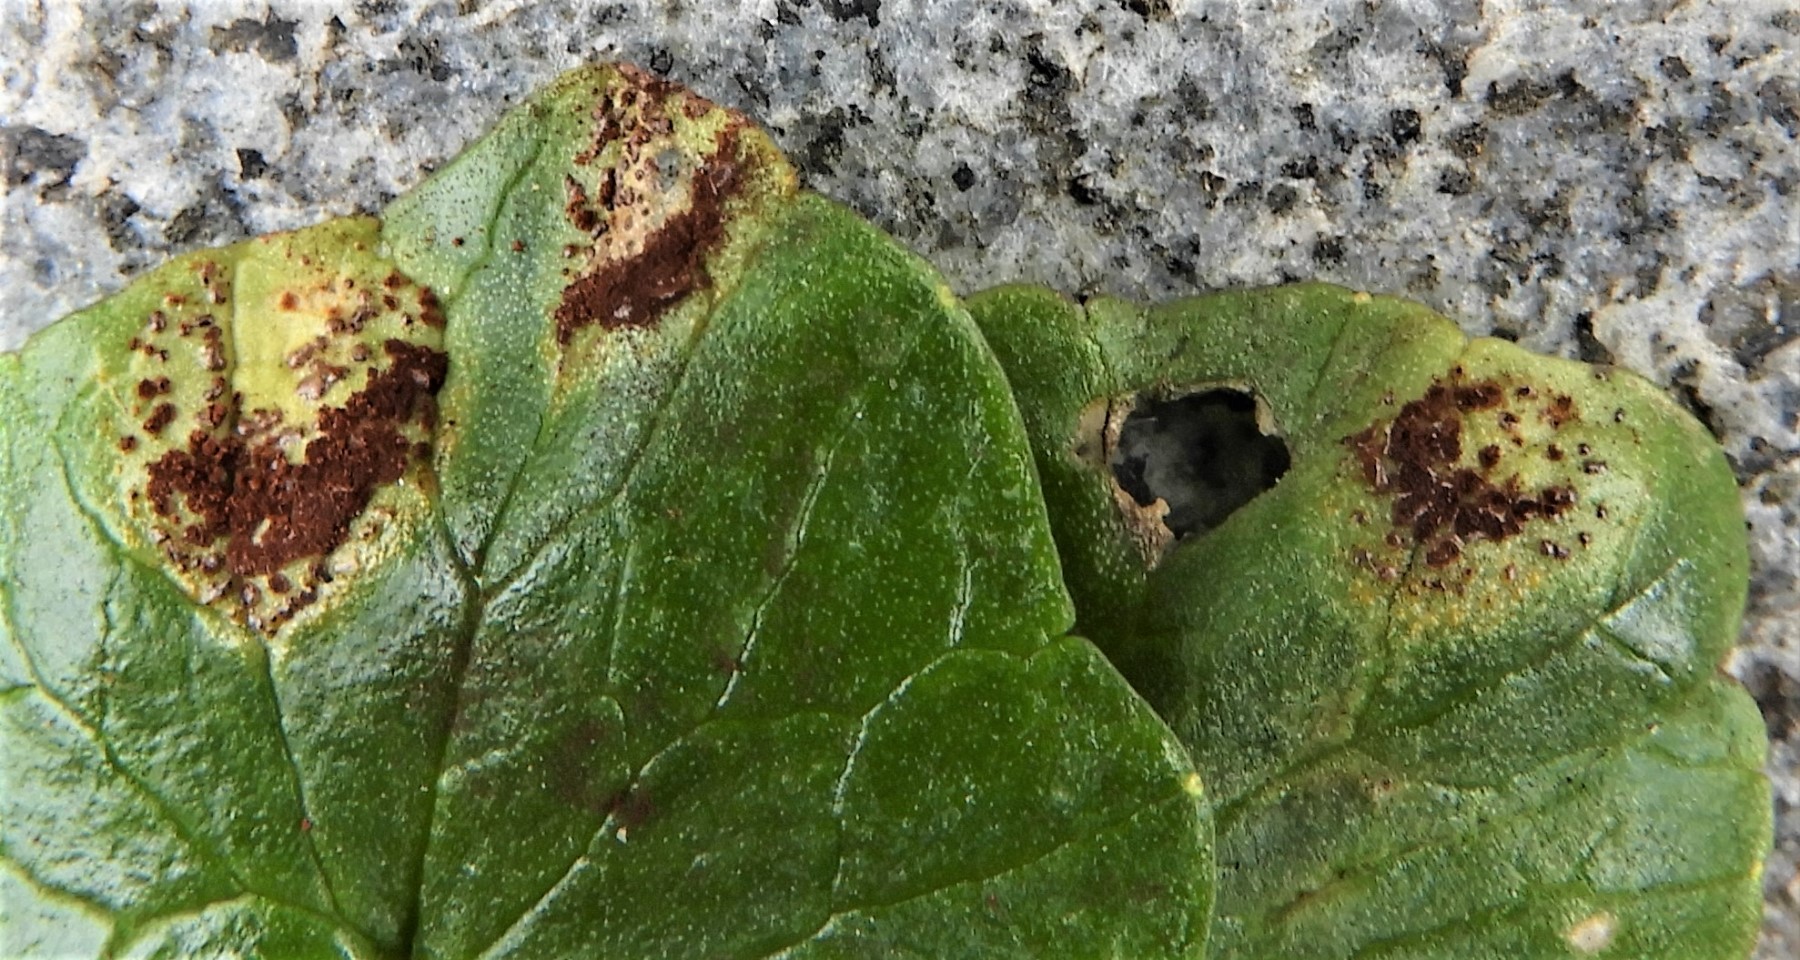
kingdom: Fungi
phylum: Basidiomycota
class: Pucciniomycetes
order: Pucciniales
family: Pucciniaceae
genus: Uromyces
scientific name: Uromyces ficariae
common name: vorterod-encellerust
